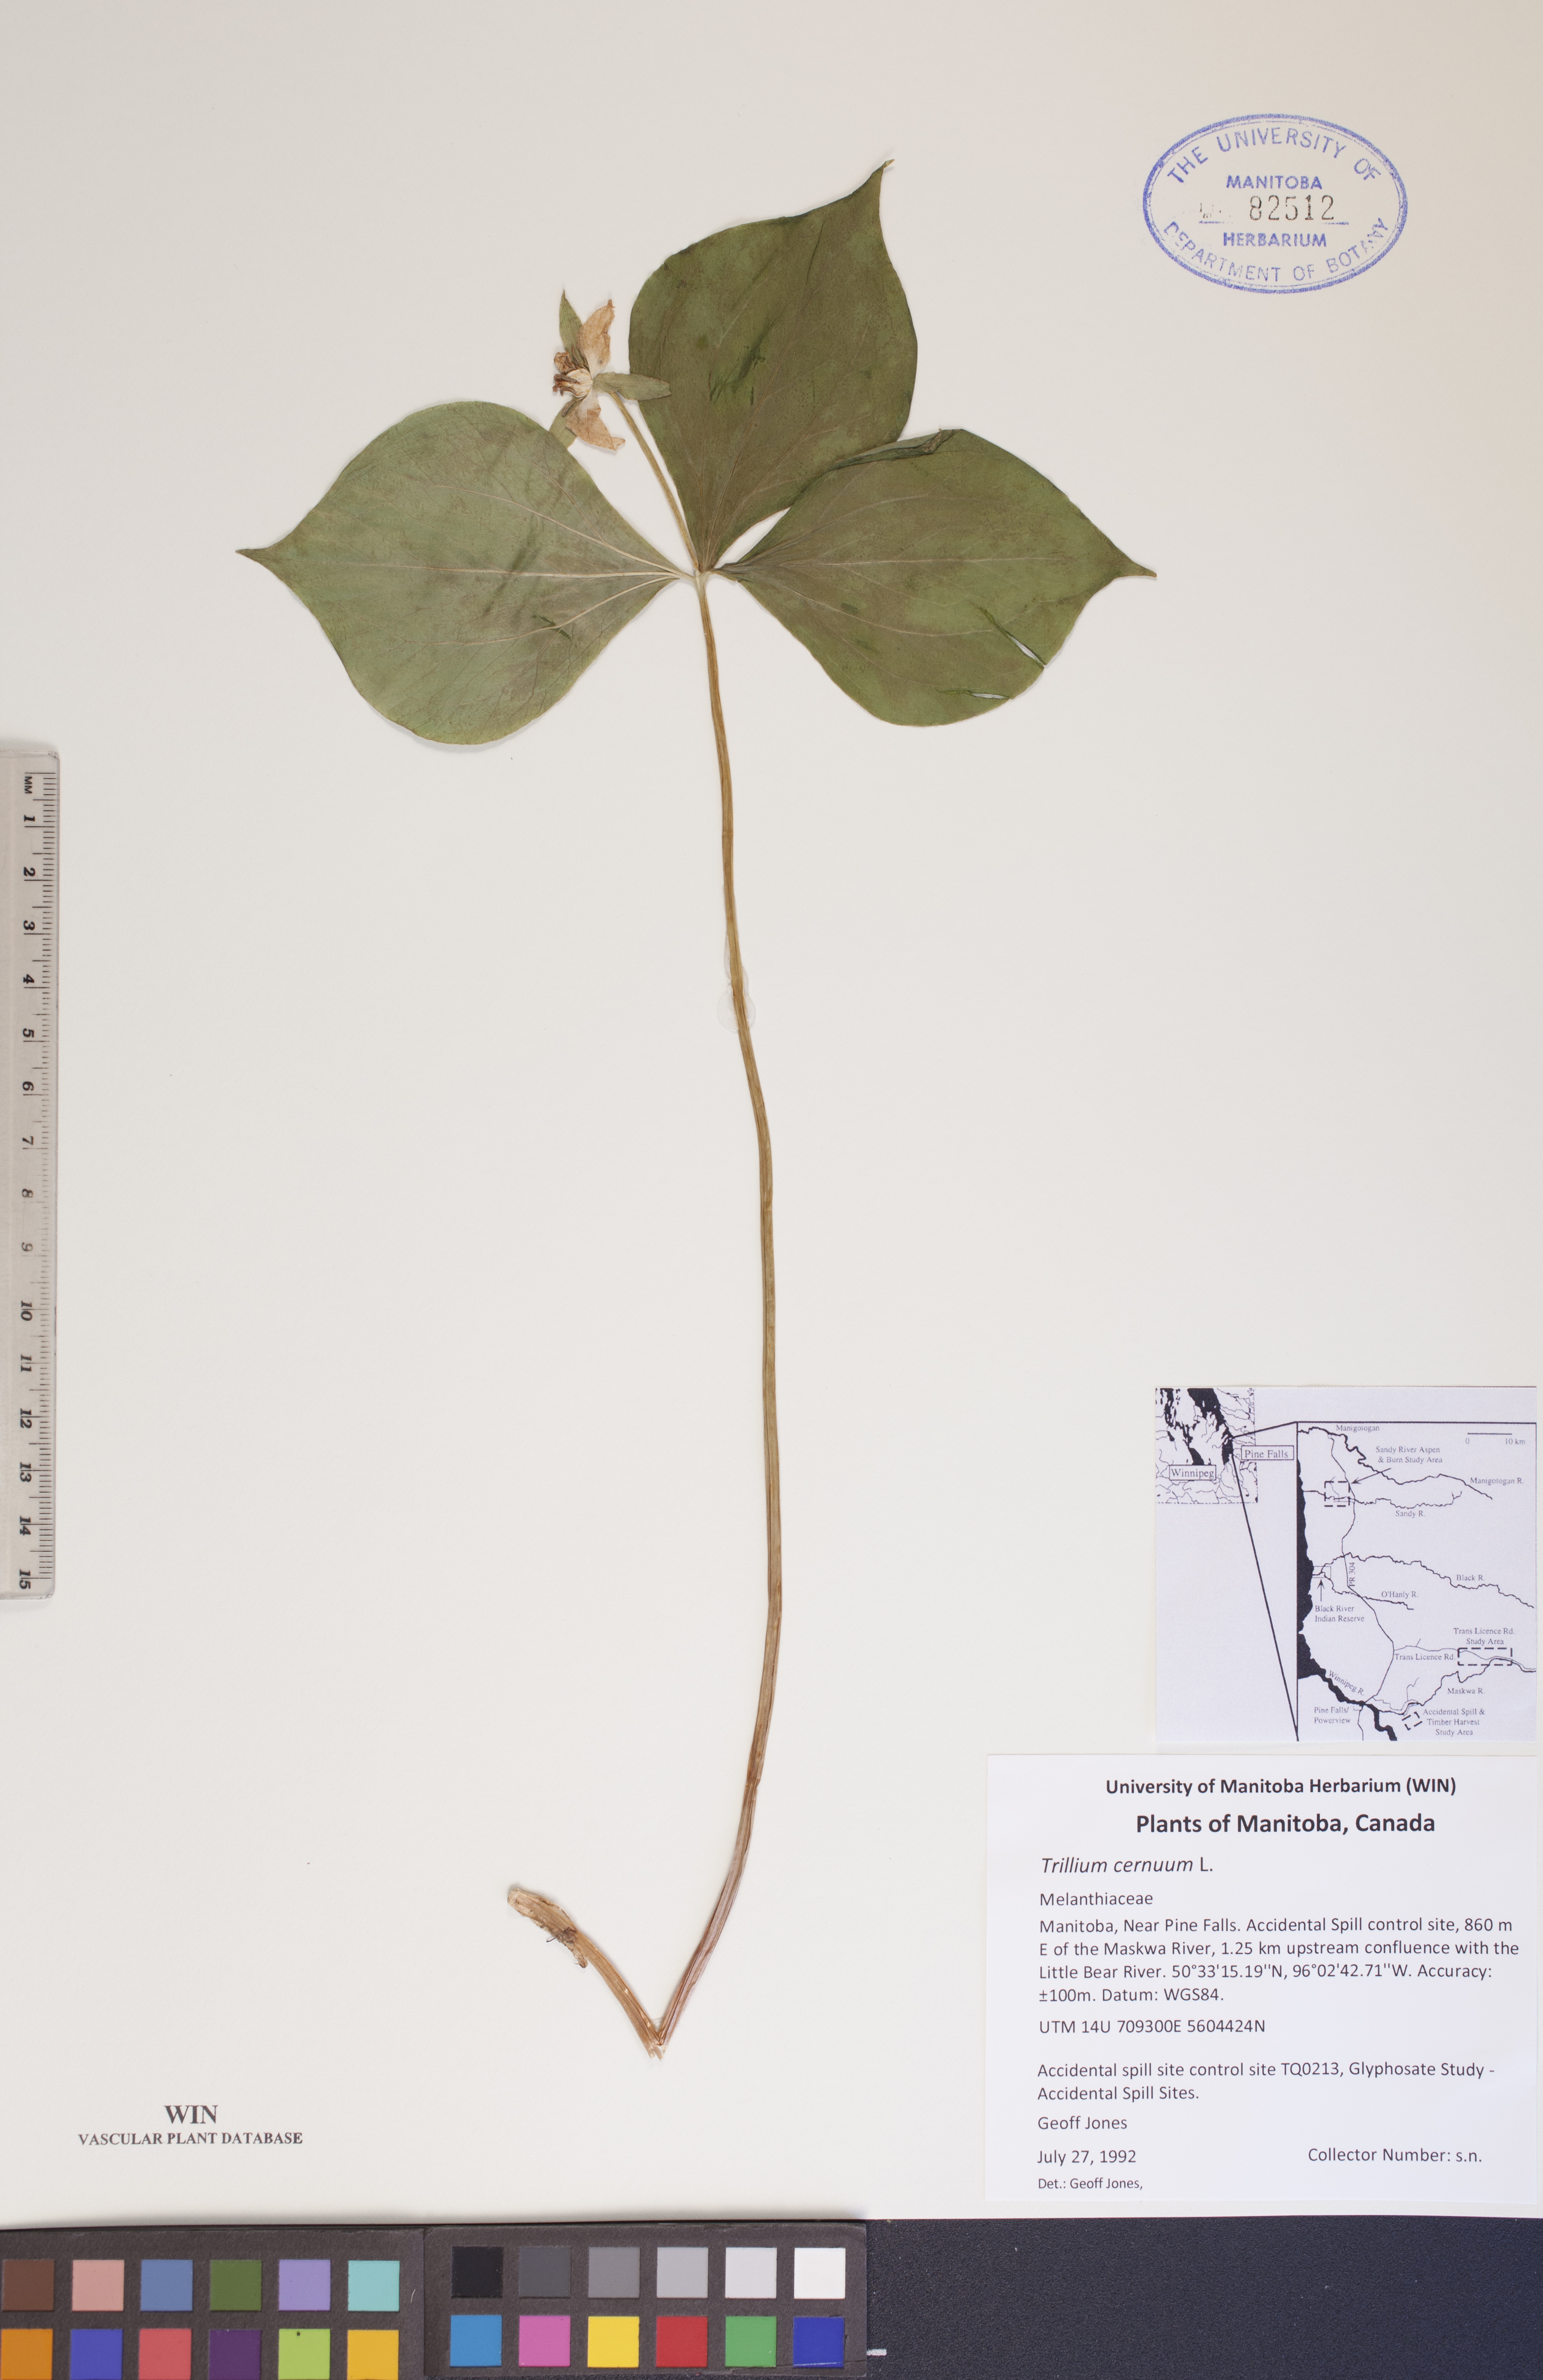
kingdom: Plantae
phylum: Tracheophyta
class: Liliopsida
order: Liliales
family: Melanthiaceae
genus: Trillium
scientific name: Trillium cernuum
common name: Nodding trillium
